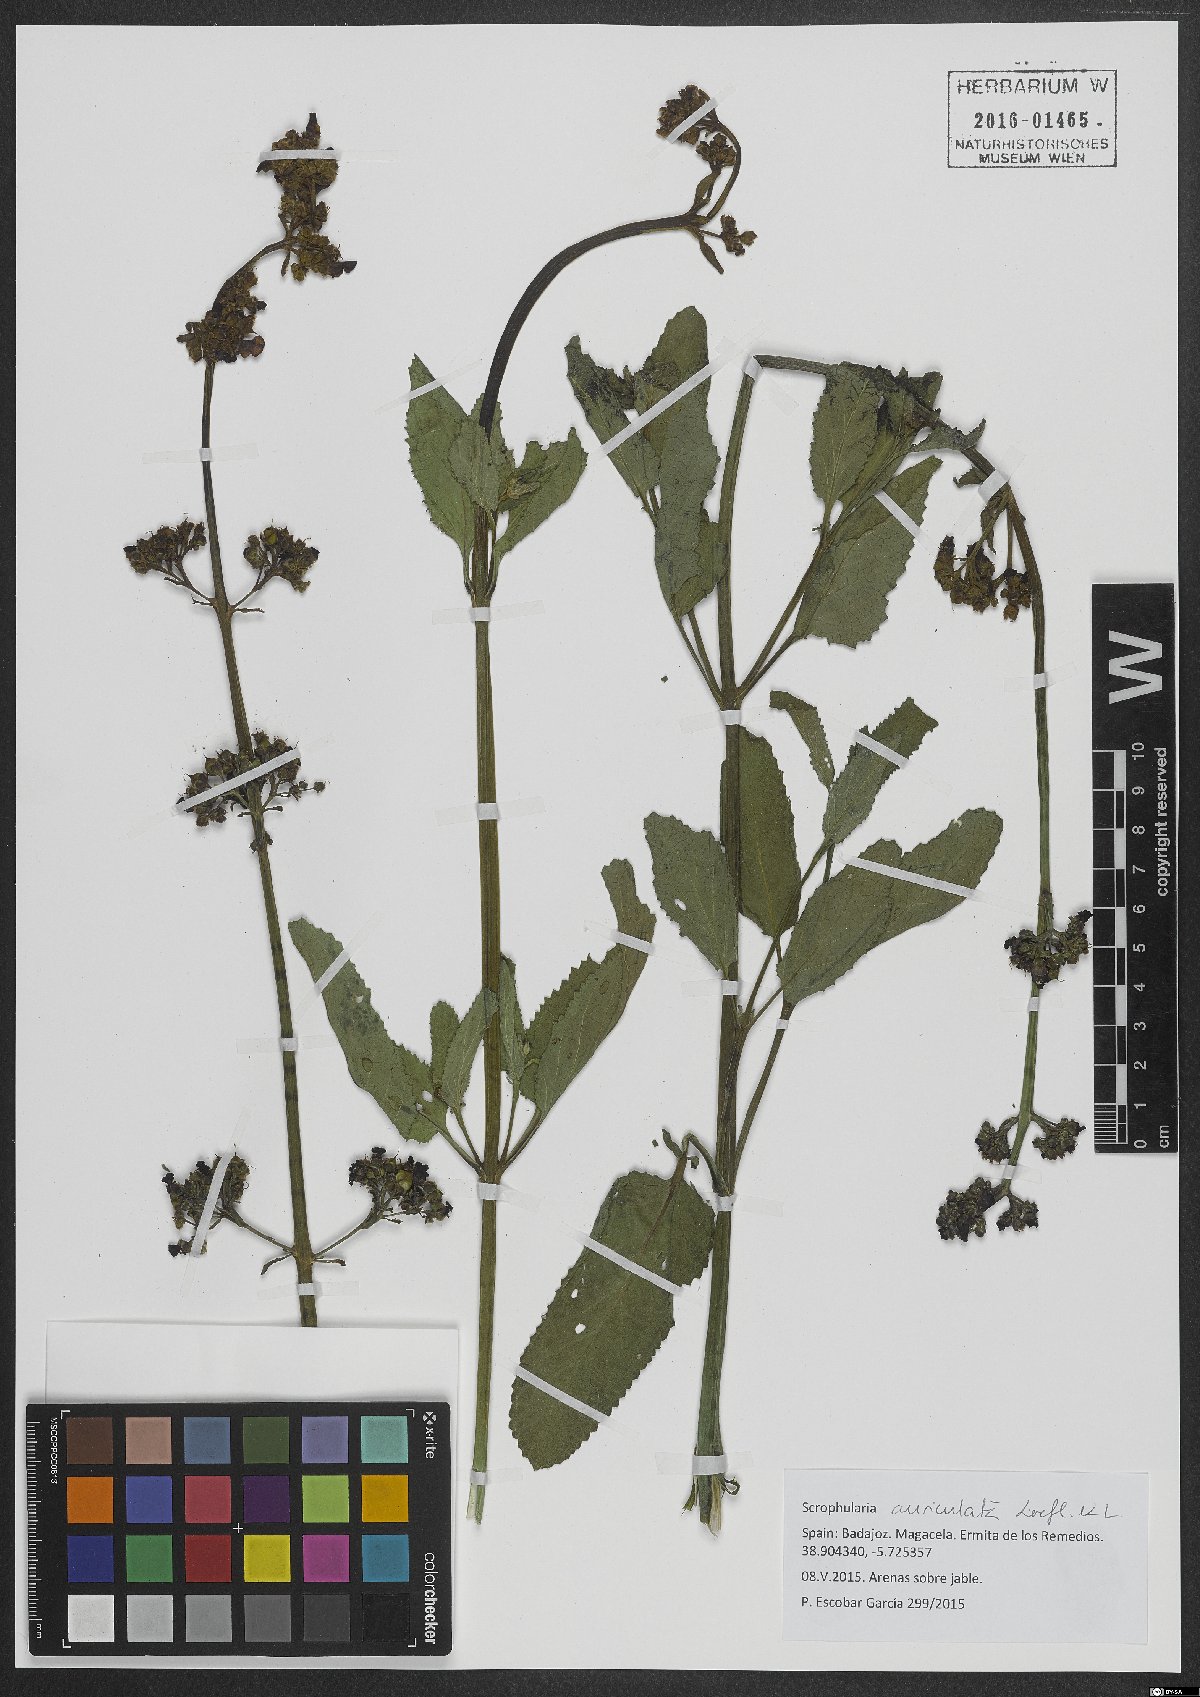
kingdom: Plantae
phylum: Tracheophyta
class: Magnoliopsida
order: Lamiales
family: Scrophulariaceae
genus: Scrophularia
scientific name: Scrophularia auriculata
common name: Water betony
